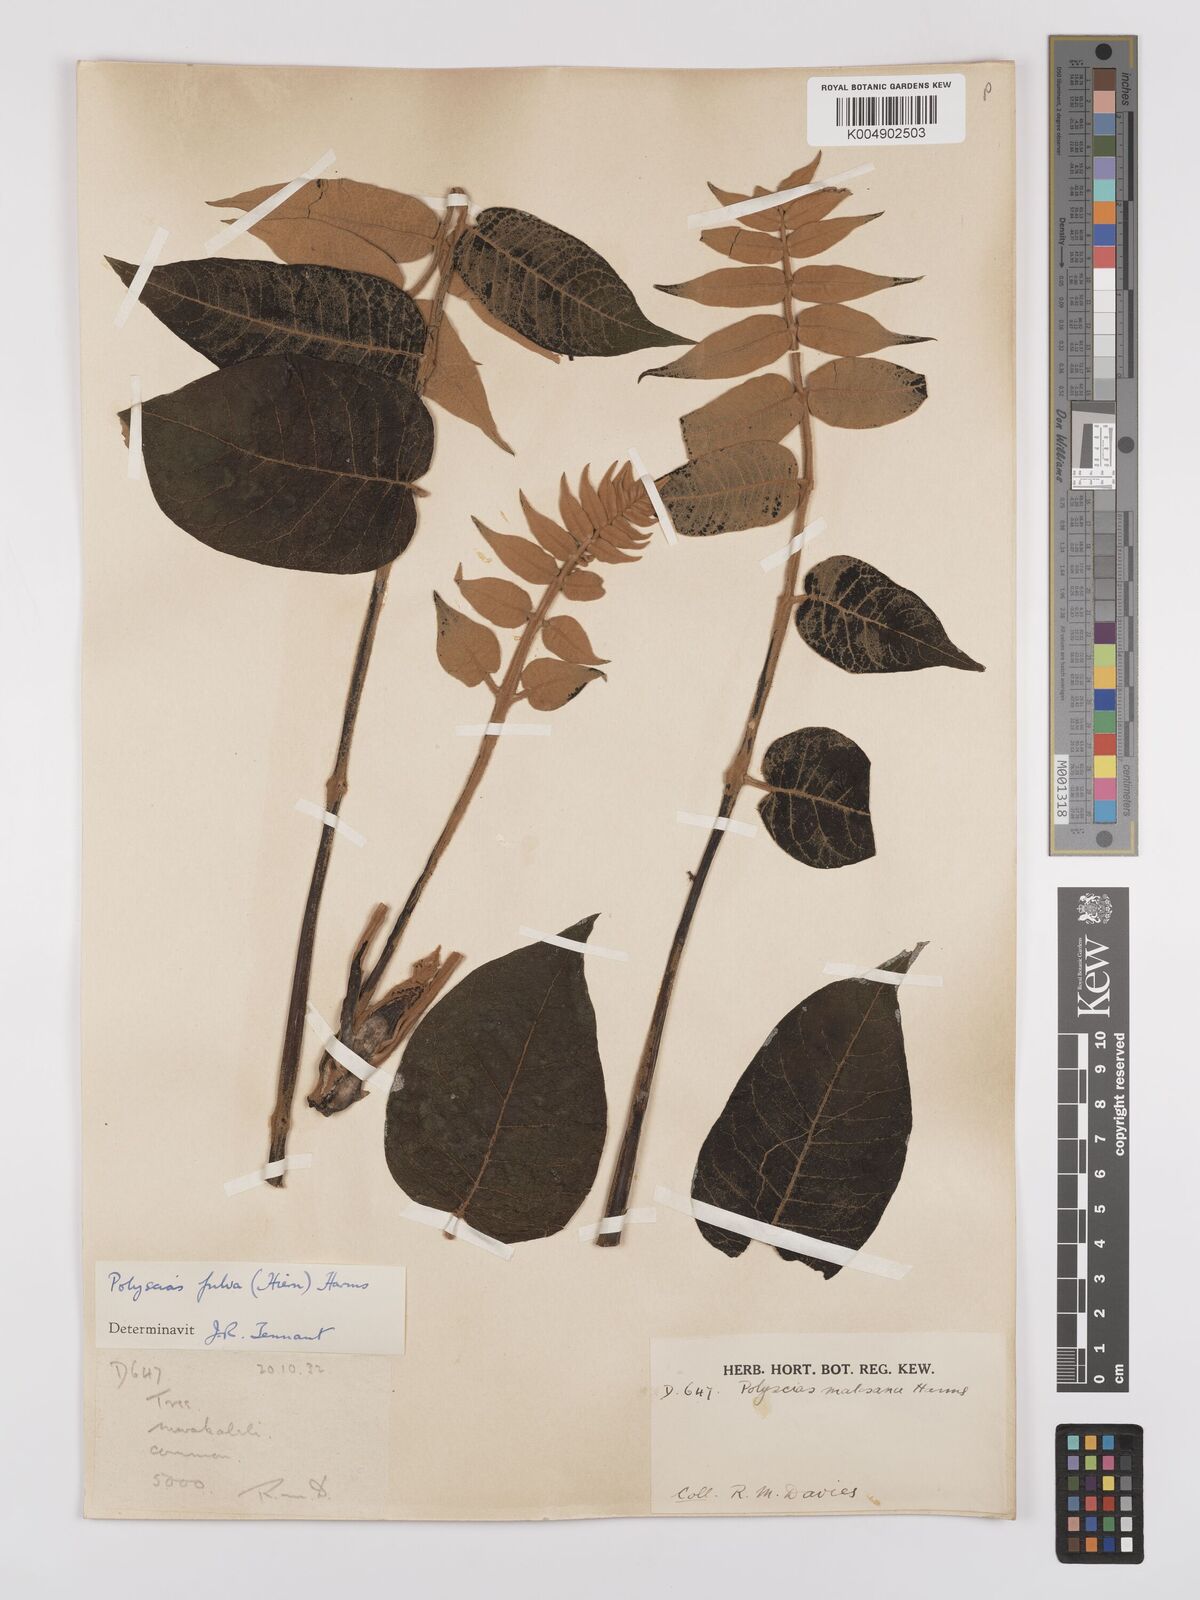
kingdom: Plantae
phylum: Tracheophyta
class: Magnoliopsida
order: Apiales
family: Araliaceae
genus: Polyscias
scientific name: Polyscias fulva
